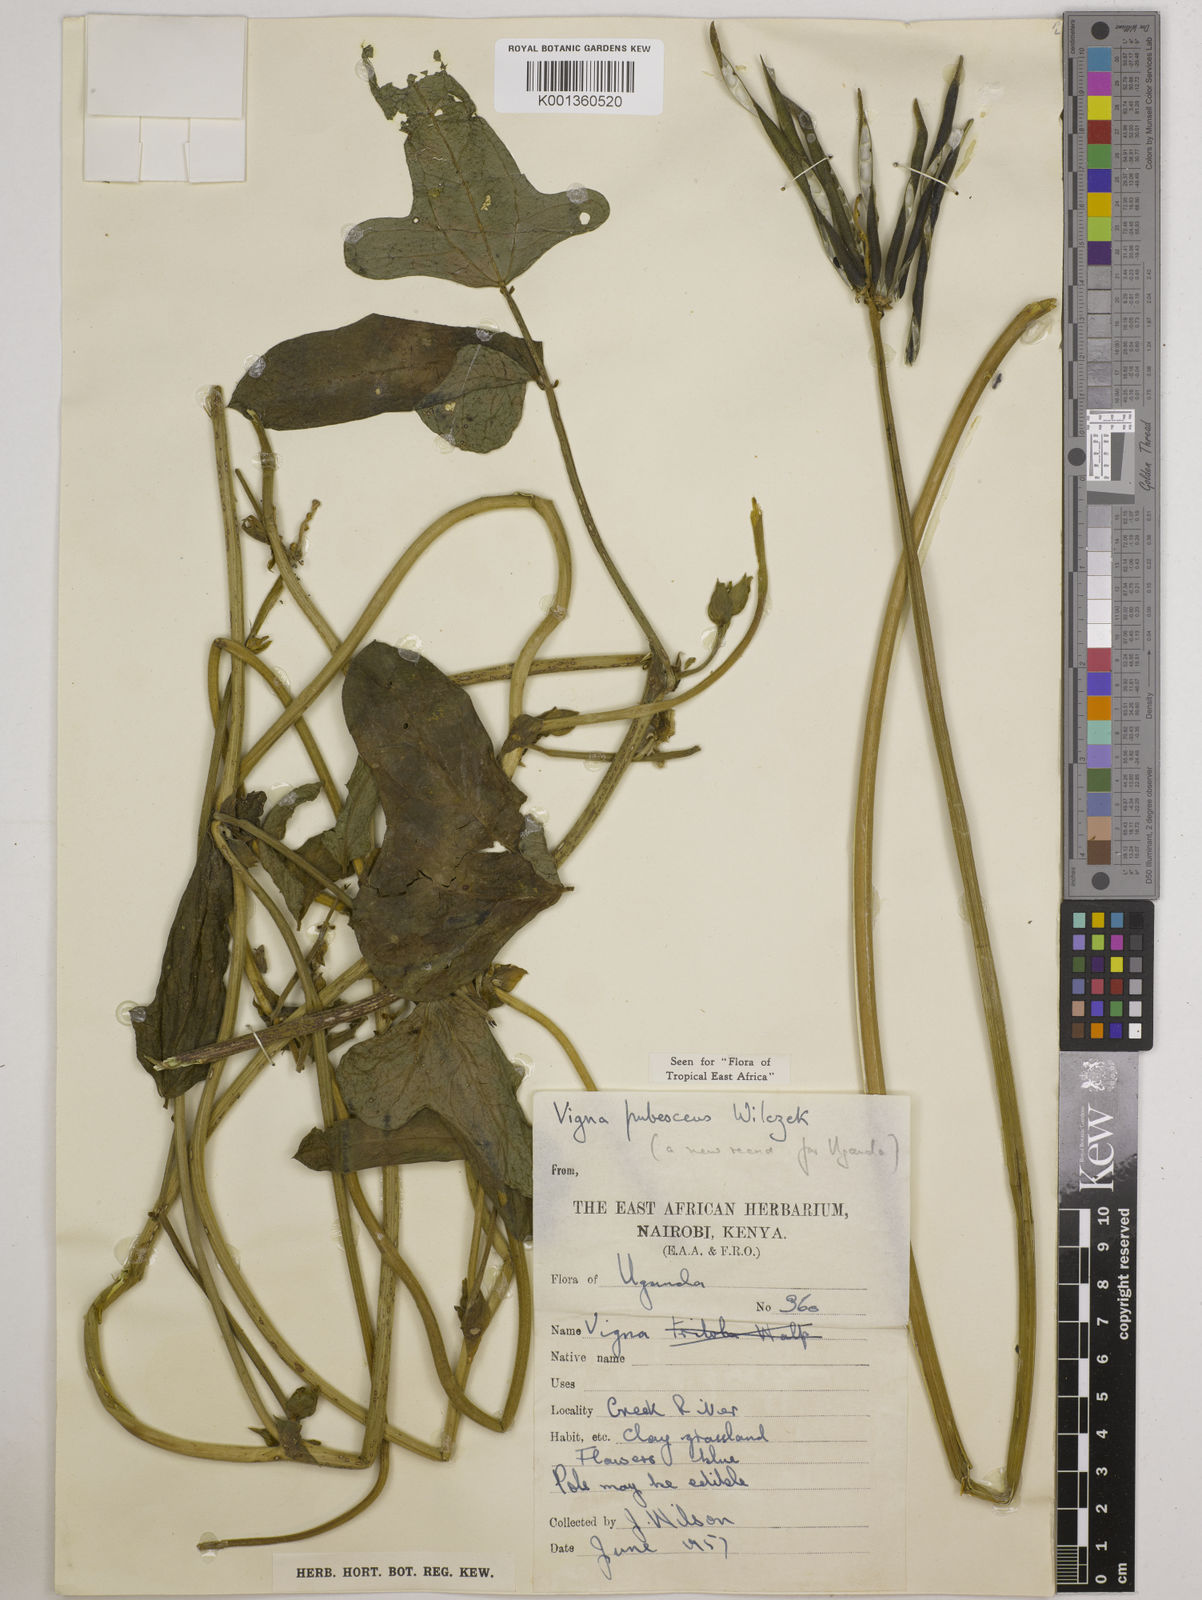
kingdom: Plantae
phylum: Tracheophyta
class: Magnoliopsida
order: Fabales
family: Fabaceae
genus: Vigna
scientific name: Vigna unguiculata
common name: Cowpea
